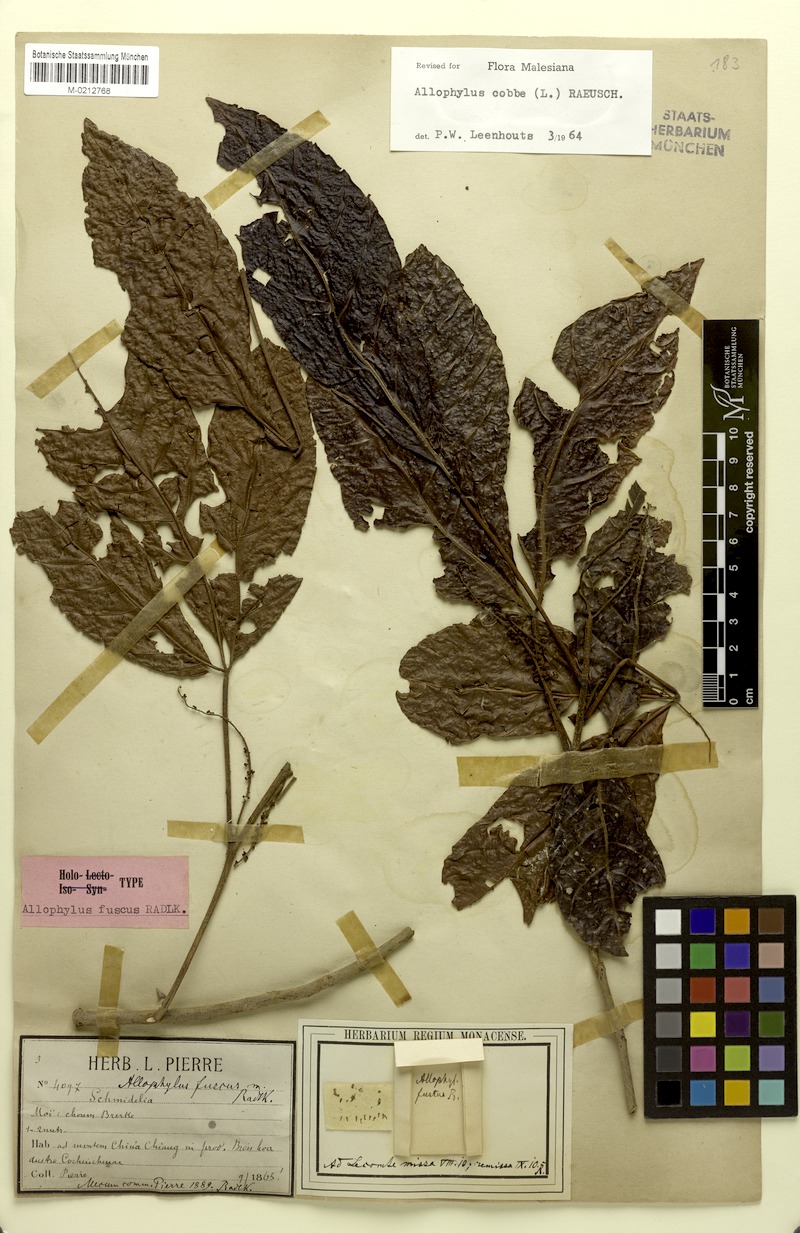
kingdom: Plantae
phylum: Tracheophyta
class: Magnoliopsida
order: Sapindales
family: Sapindaceae
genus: Allophylus
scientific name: Allophylus fuscus
